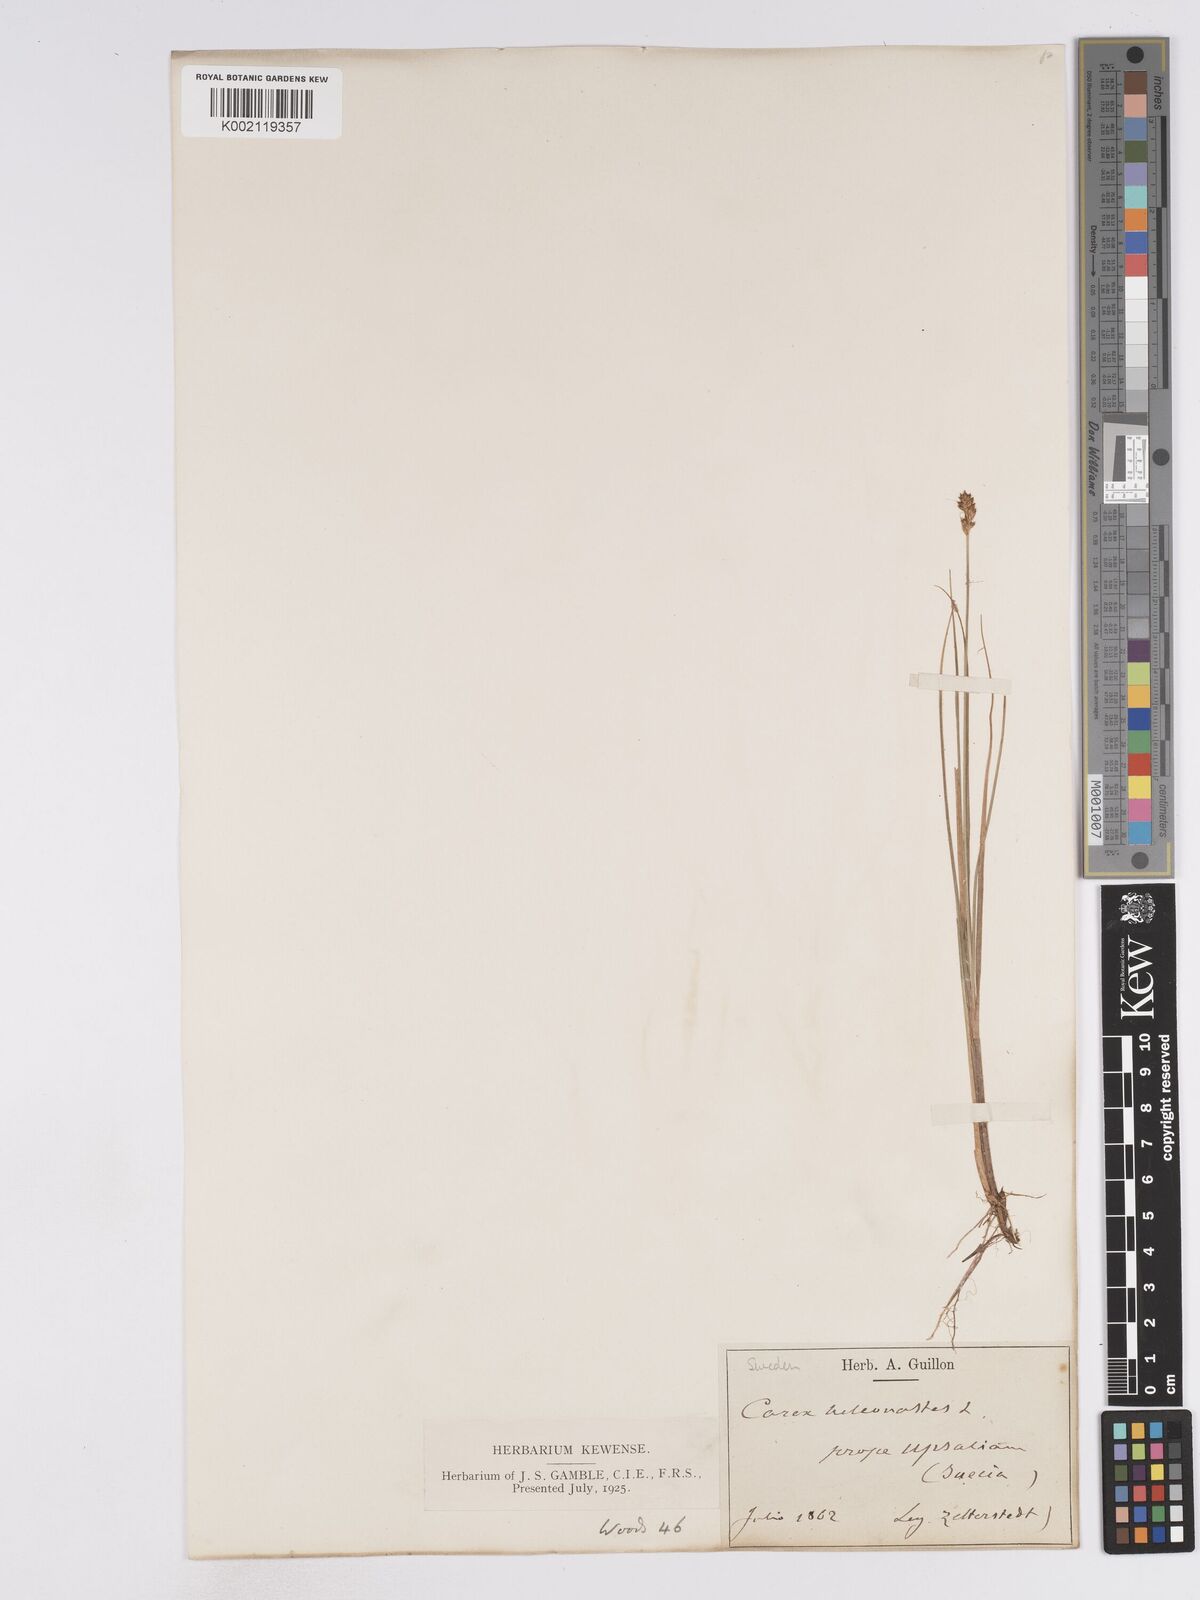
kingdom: Plantae
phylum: Tracheophyta
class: Liliopsida
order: Poales
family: Cyperaceae
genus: Carex
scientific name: Carex heleonastes
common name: Hudson bay sedge
